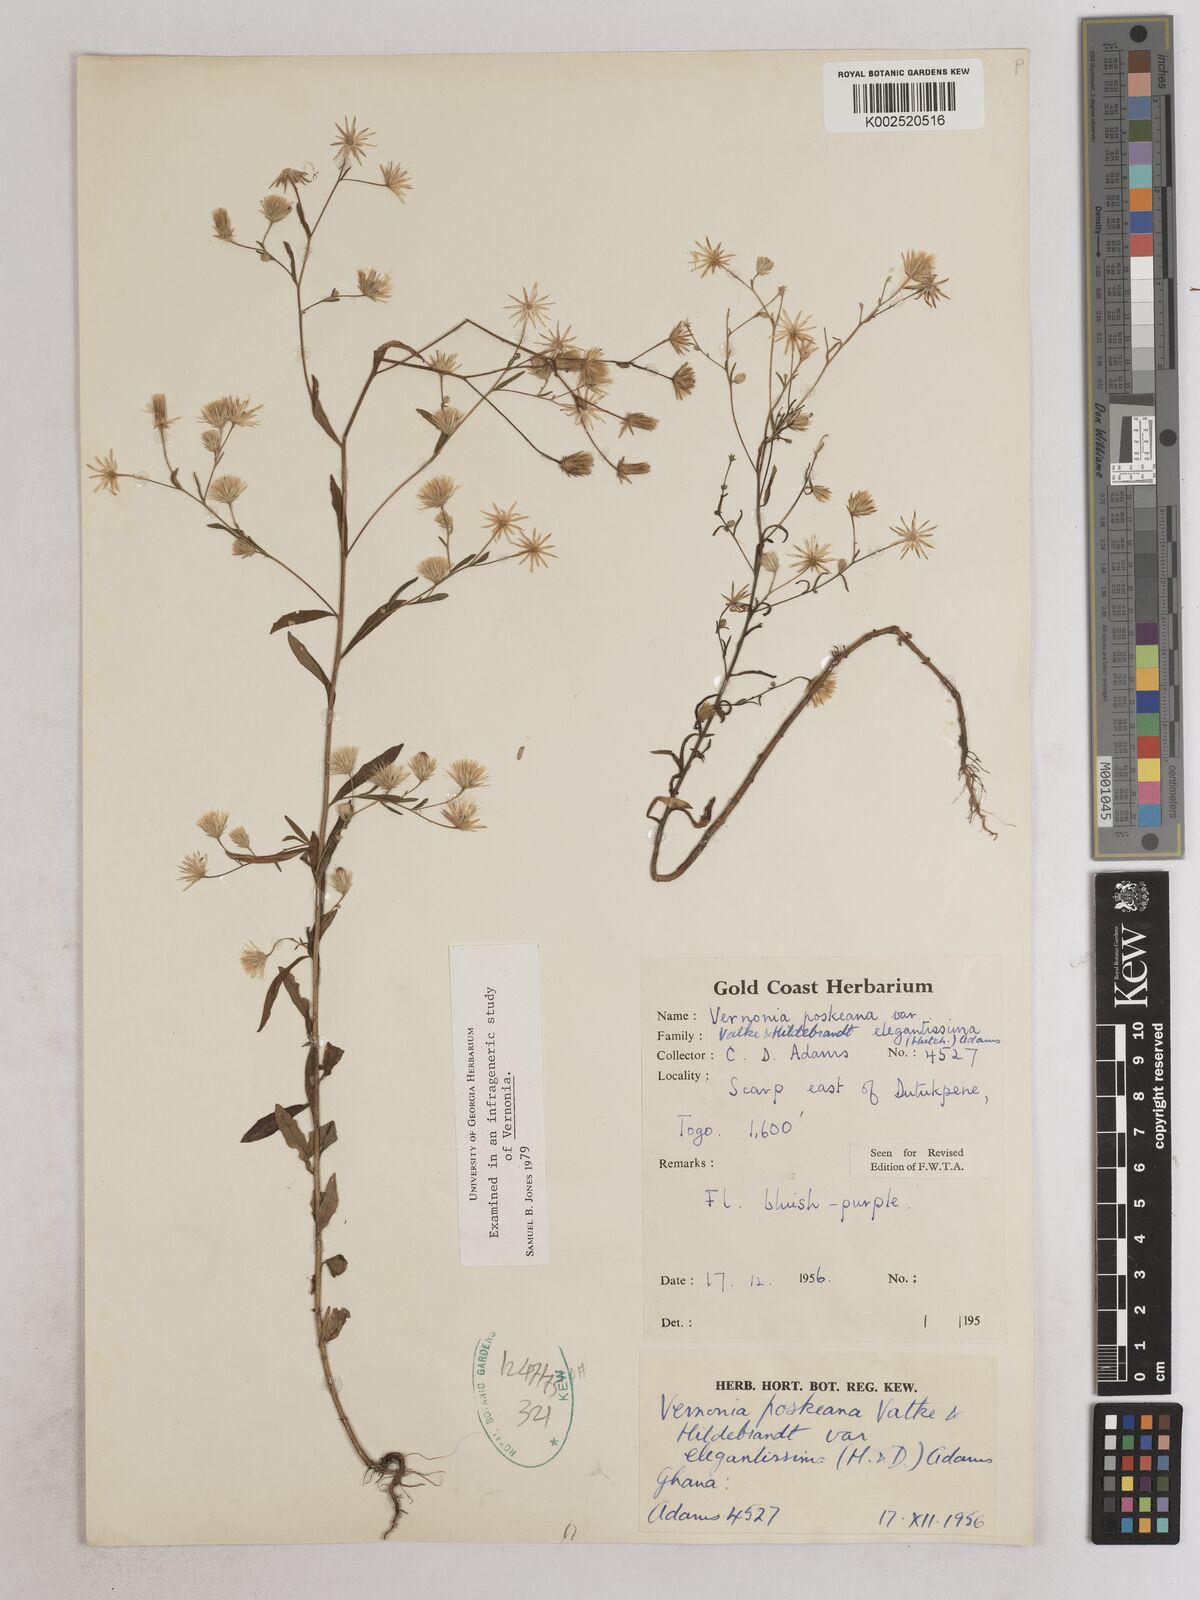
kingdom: Plantae
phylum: Tracheophyta
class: Magnoliopsida
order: Asterales
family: Asteraceae
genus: Crystallopollen
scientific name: Crystallopollen angustifolium
